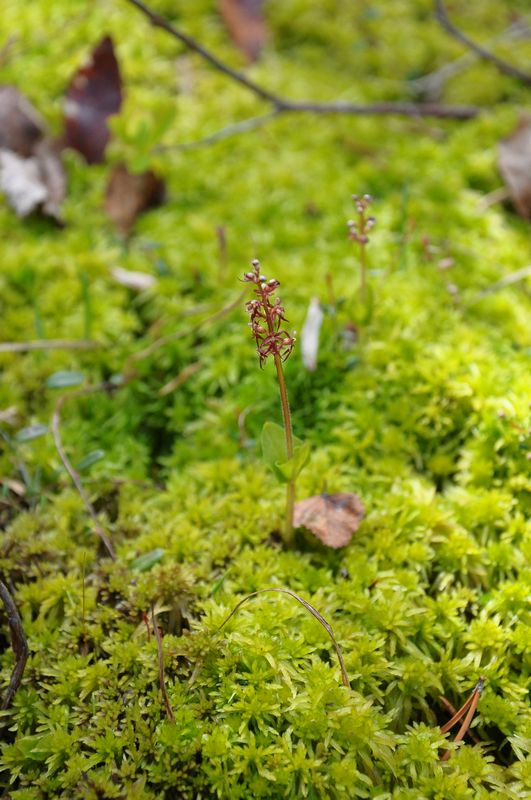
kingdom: Plantae
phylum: Tracheophyta
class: Liliopsida
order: Asparagales
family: Orchidaceae
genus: Neottia
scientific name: Neottia cordata
